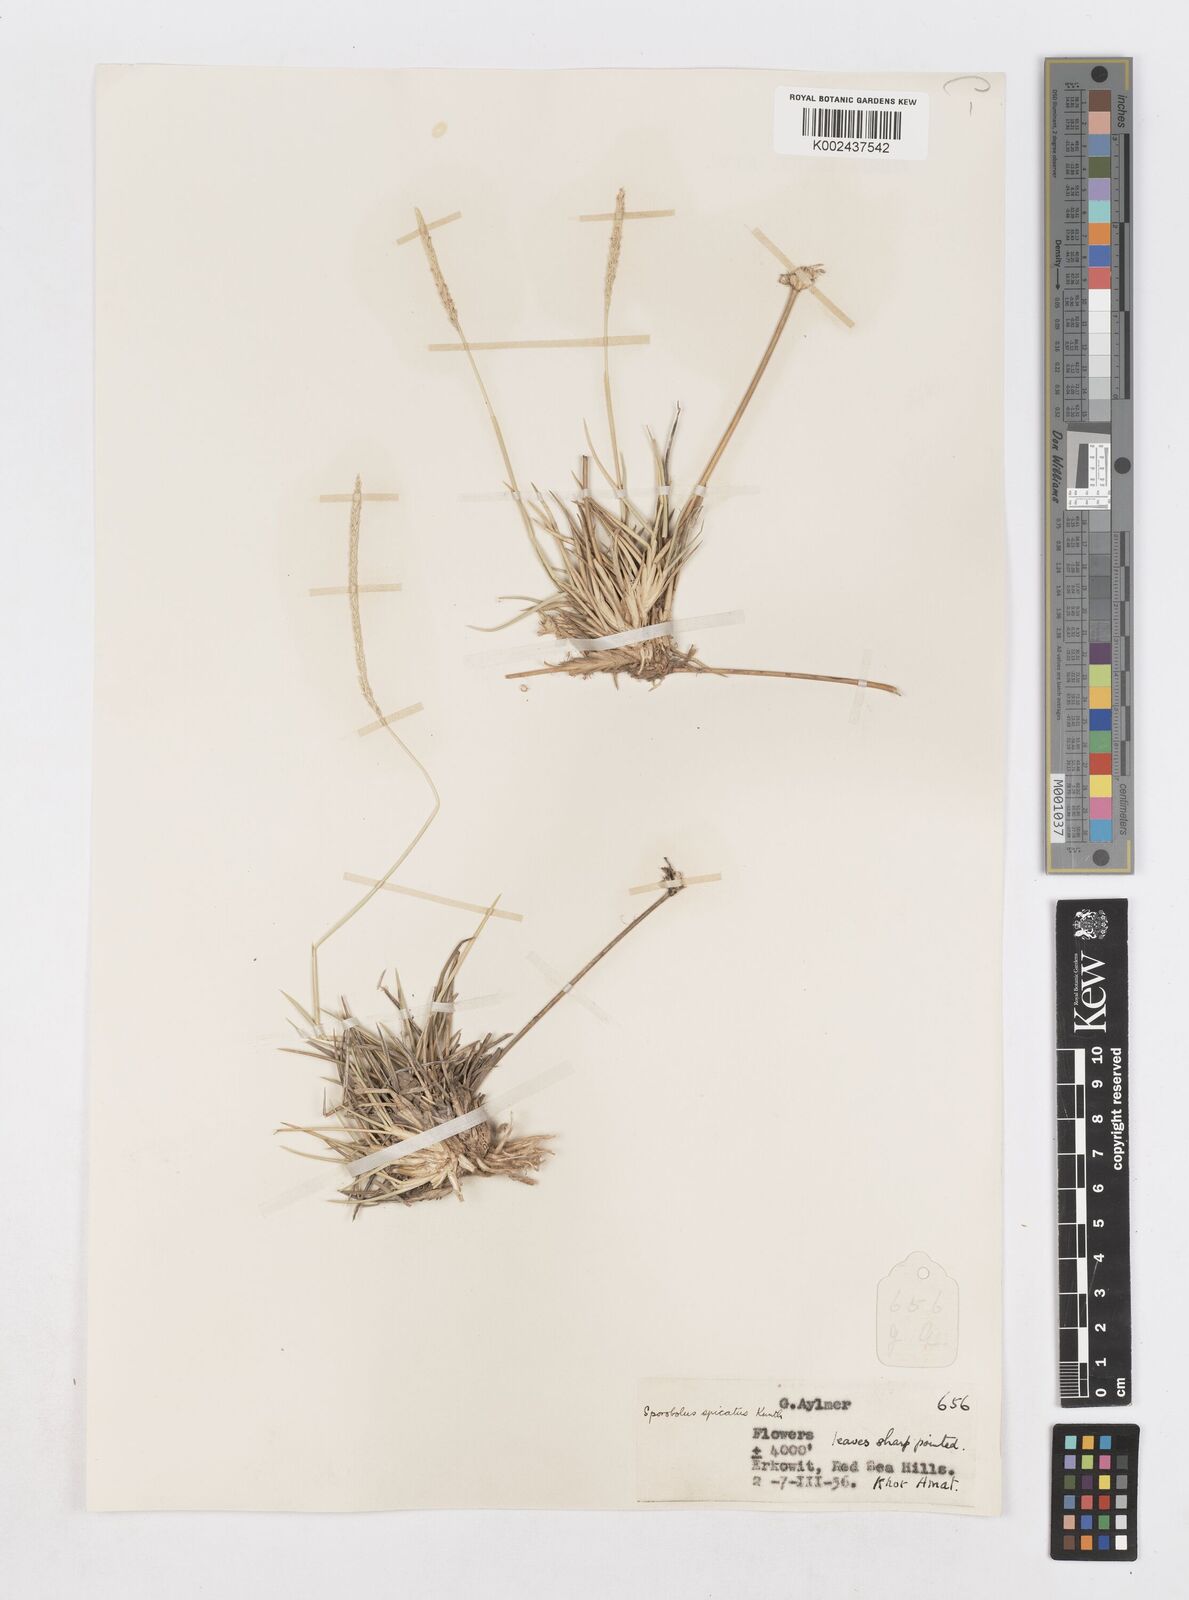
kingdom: Plantae
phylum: Tracheophyta
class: Liliopsida
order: Poales
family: Poaceae
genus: Sporobolus
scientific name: Sporobolus spicatus
